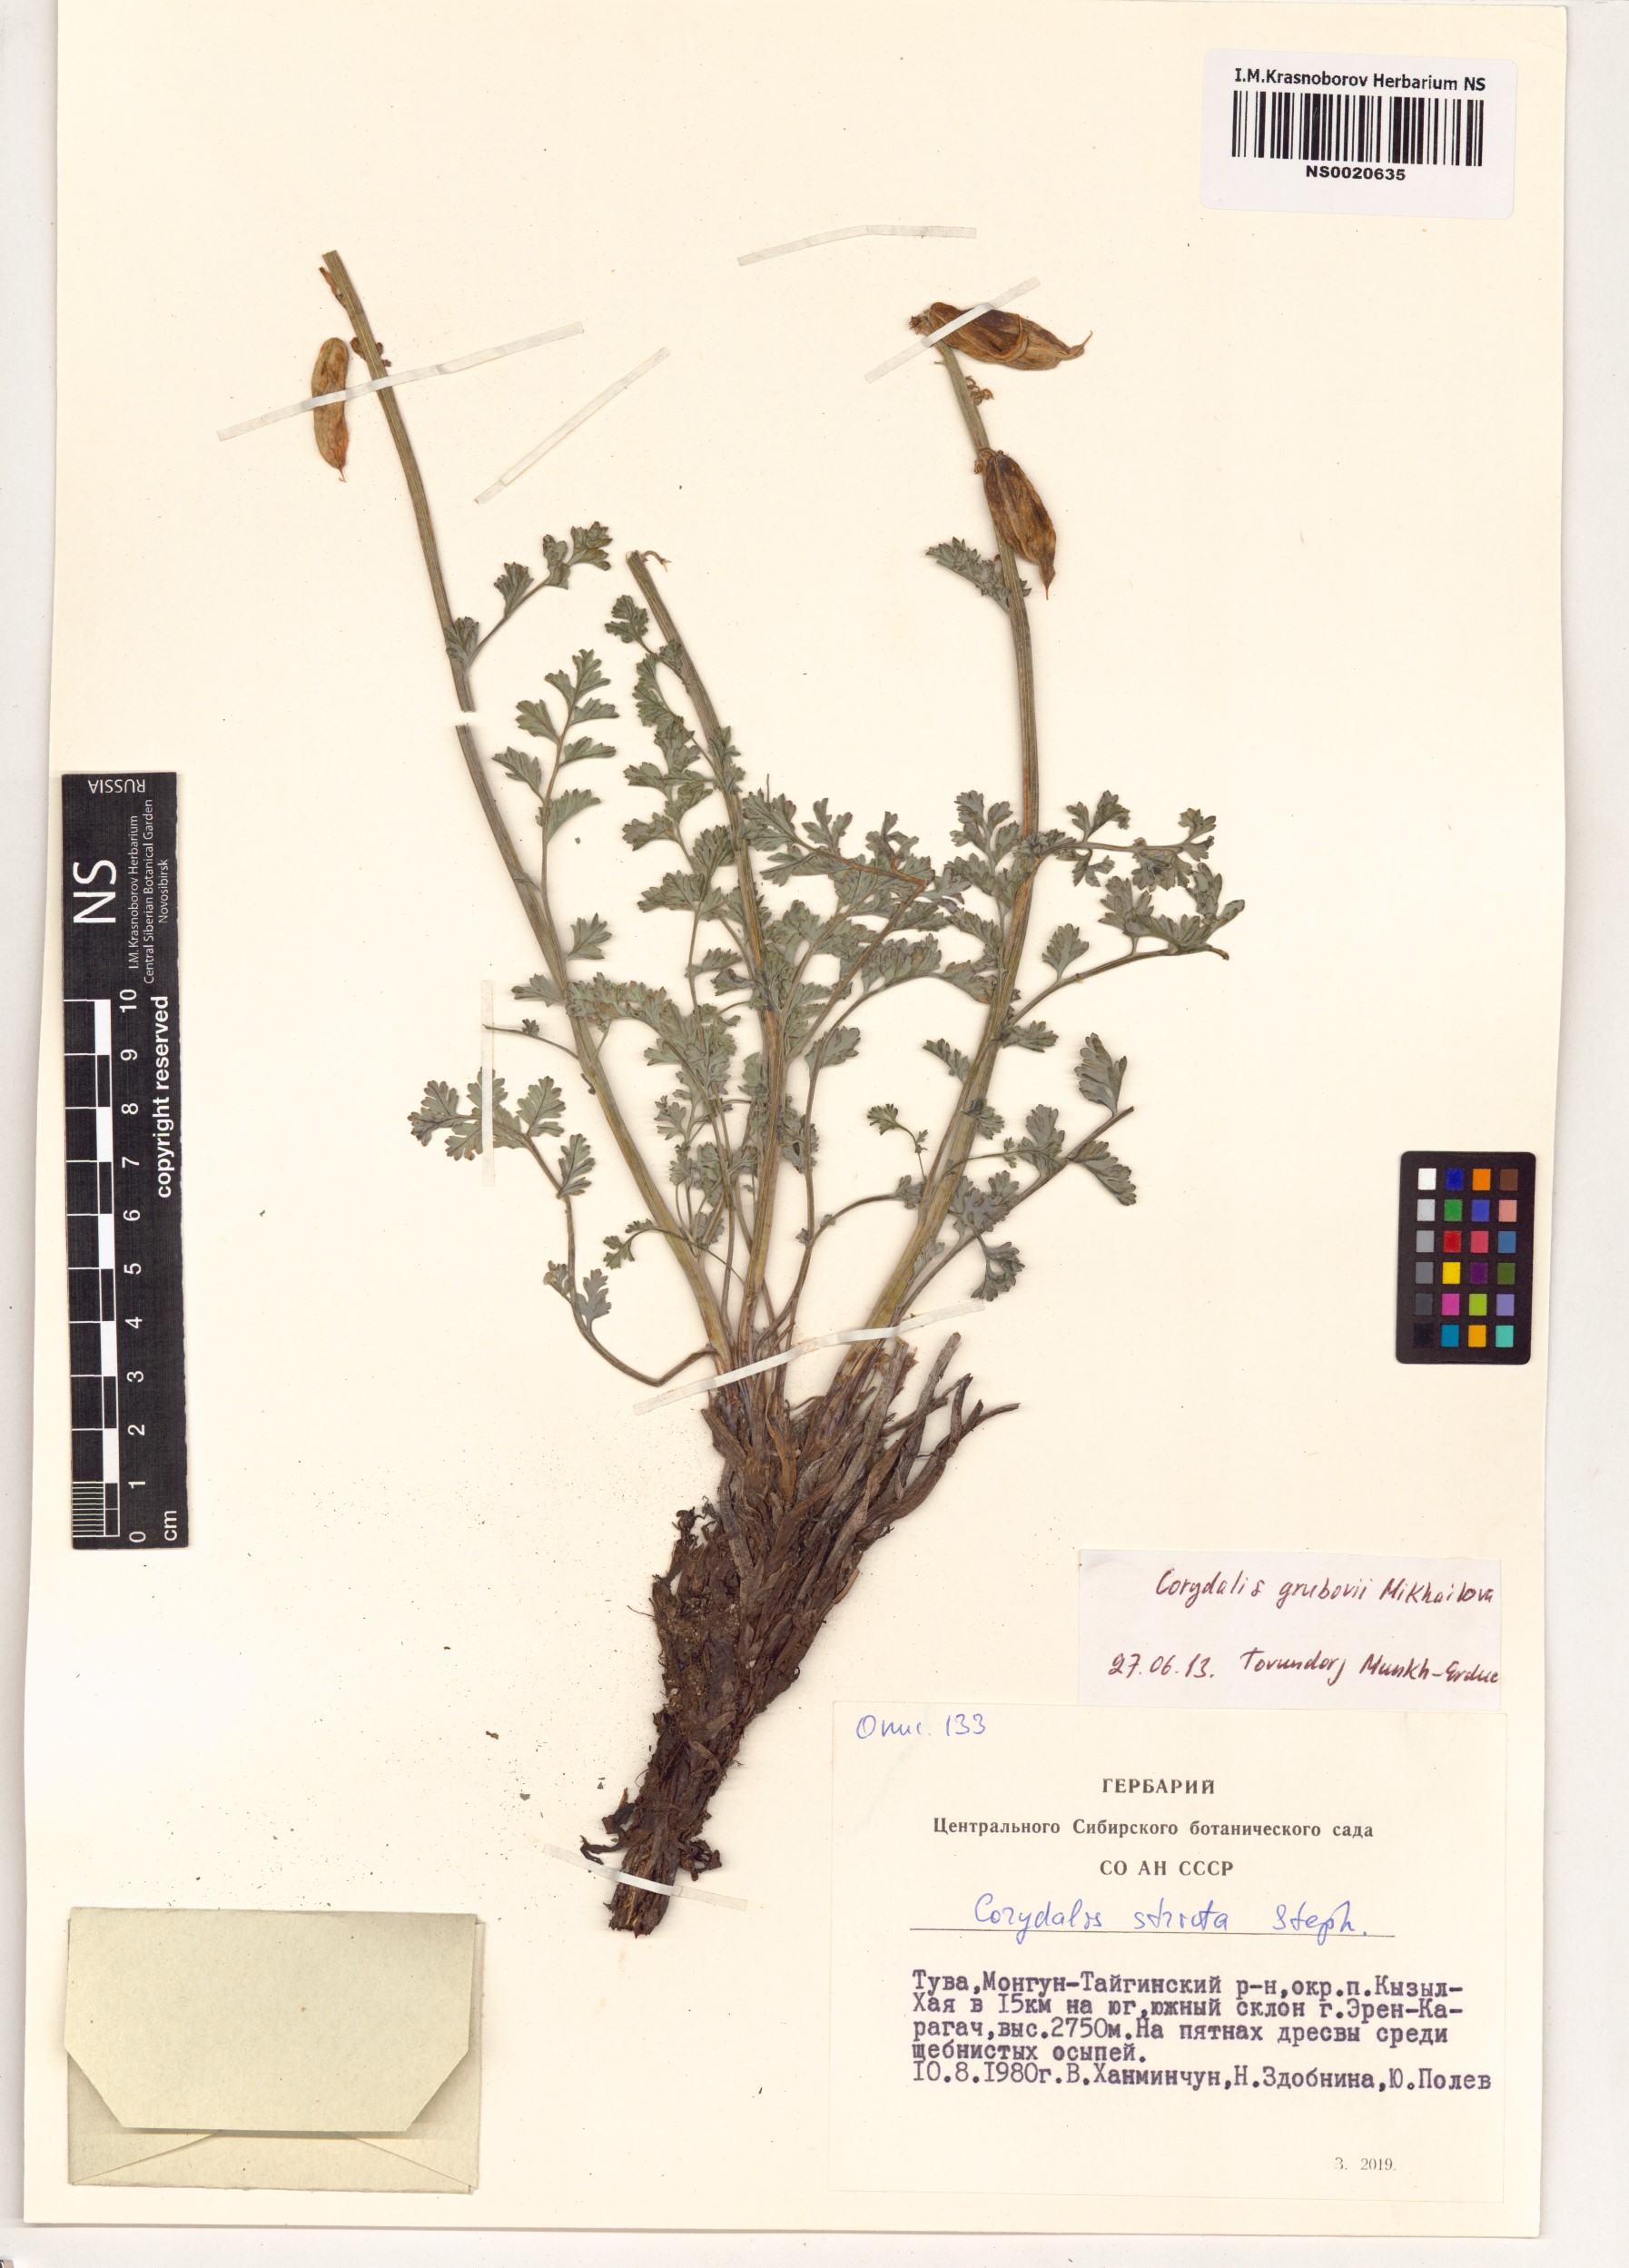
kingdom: Plantae
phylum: Tracheophyta
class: Magnoliopsida
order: Ranunculales
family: Papaveraceae
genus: Corydalis
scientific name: Corydalis stricta
